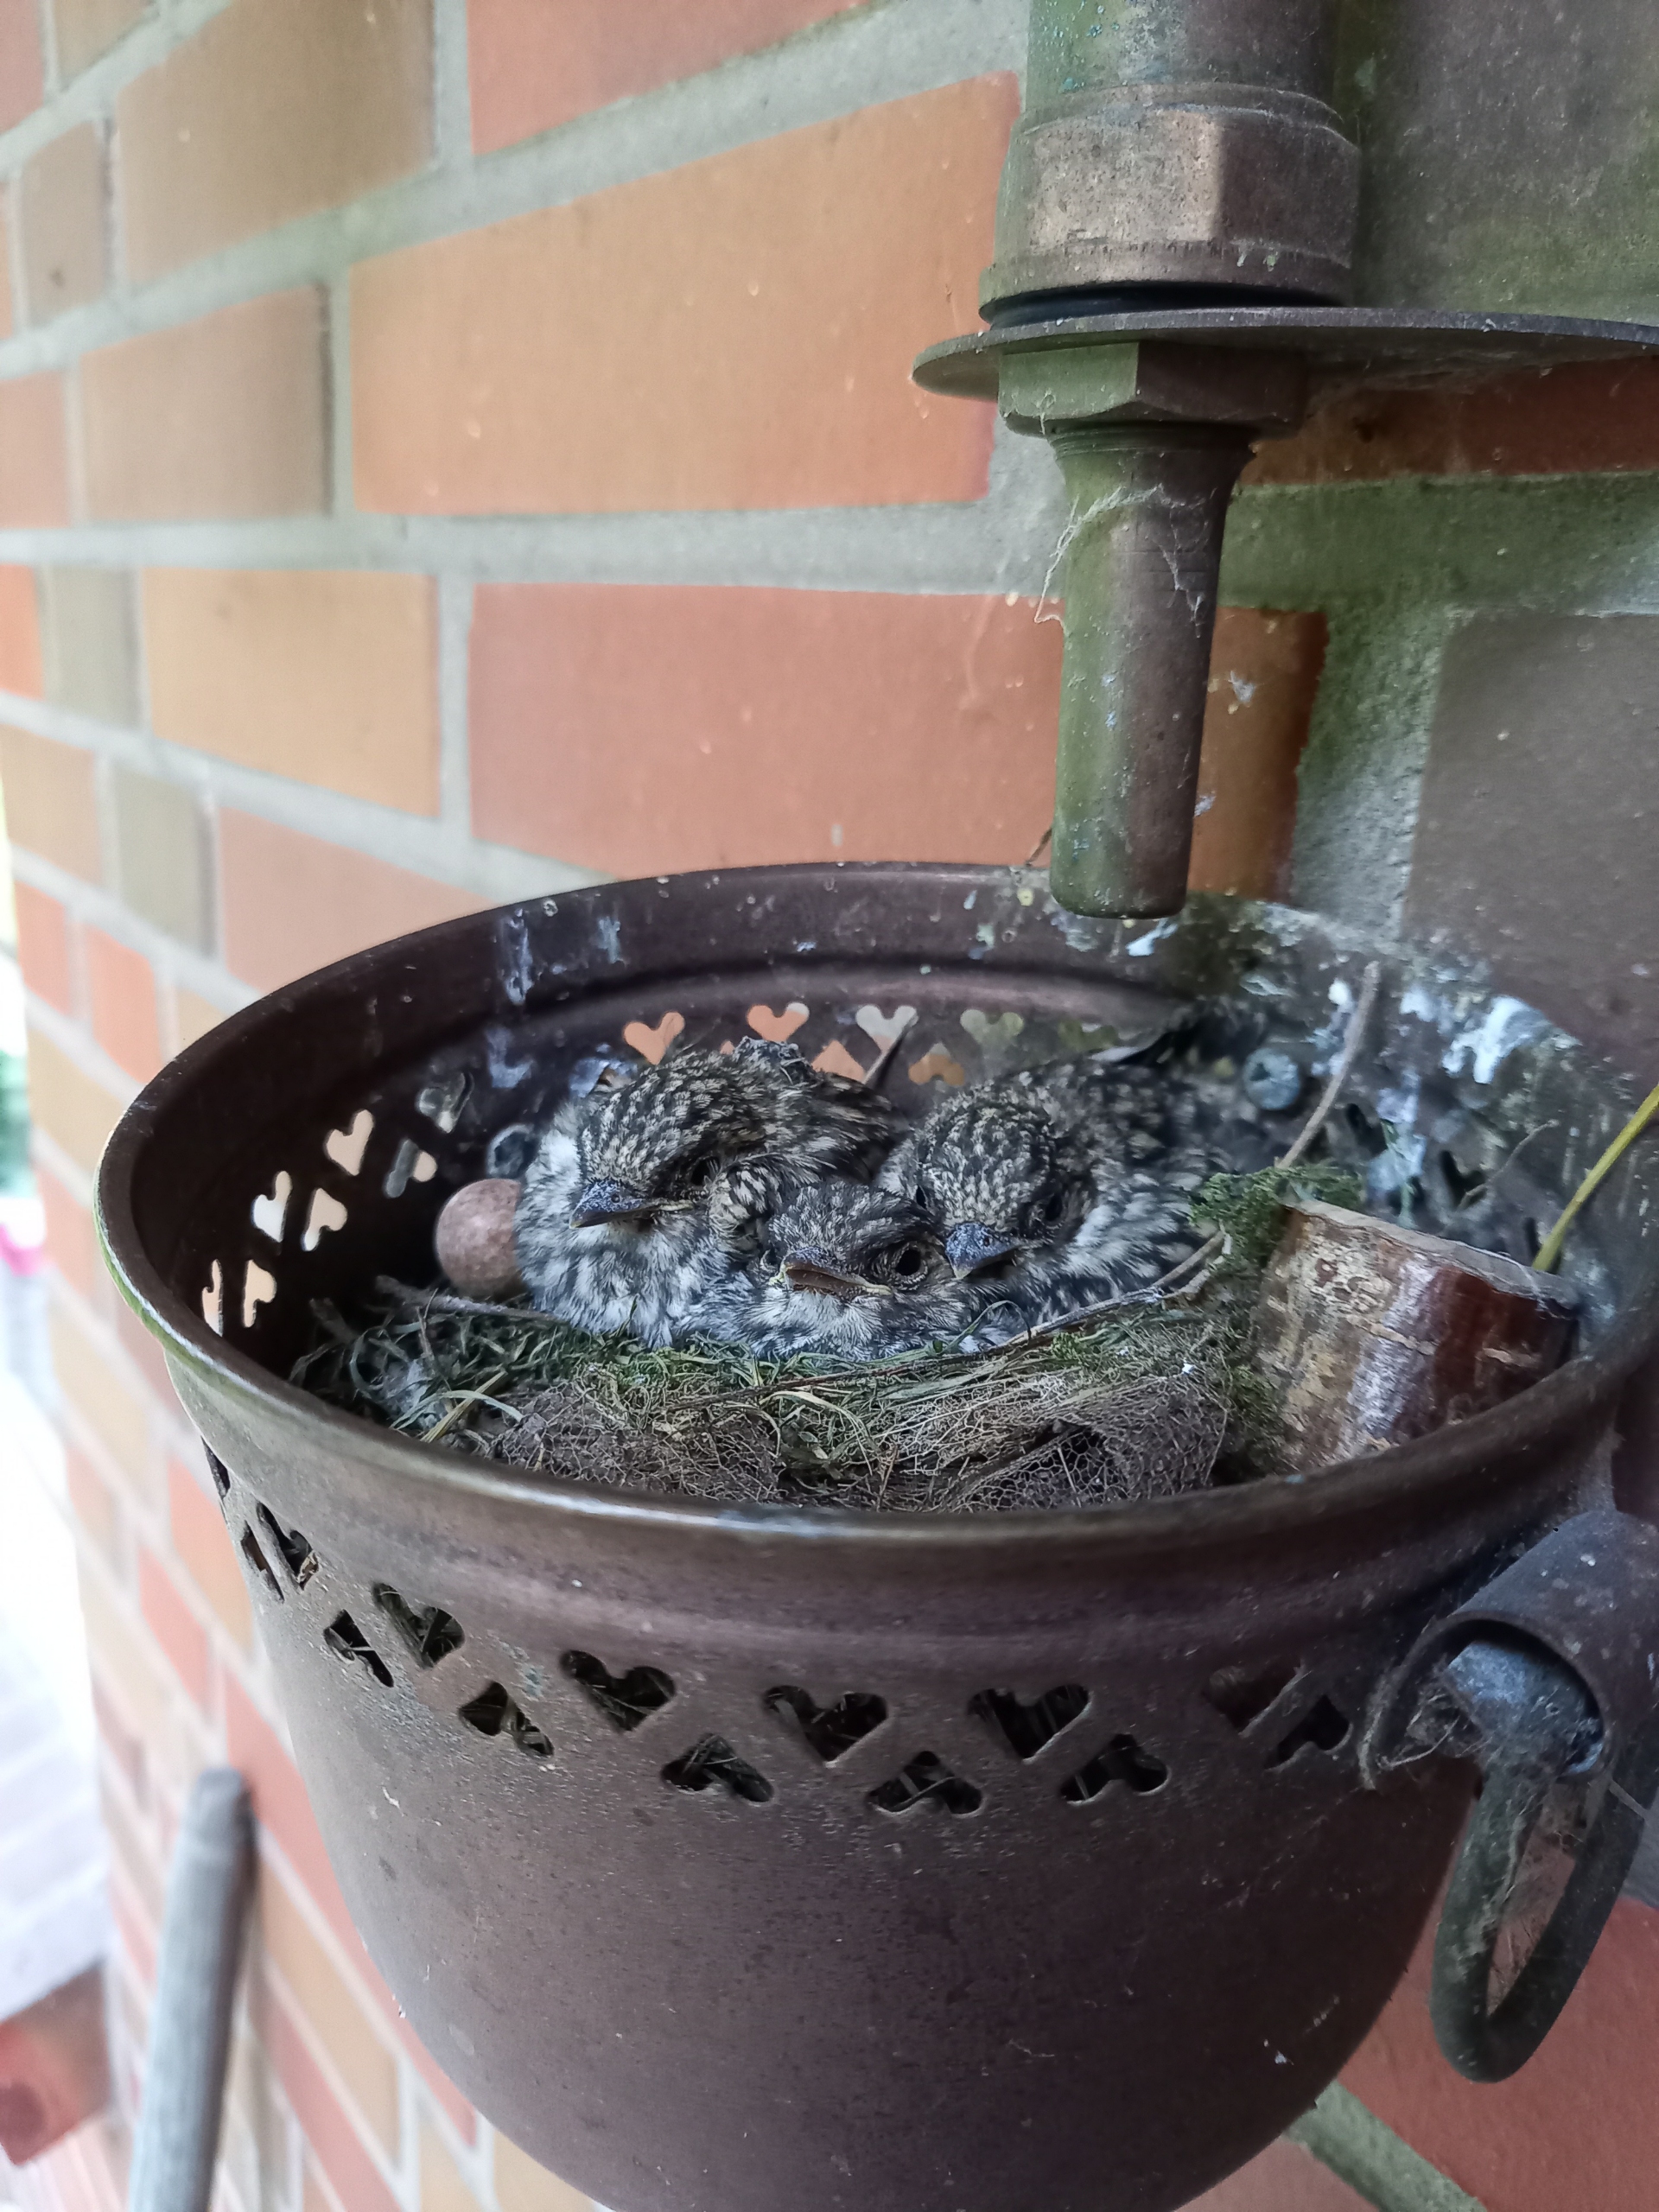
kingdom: Animalia
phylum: Chordata
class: Aves
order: Passeriformes
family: Muscicapidae
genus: Muscicapa
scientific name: Muscicapa striata
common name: Grå fluesnapper
